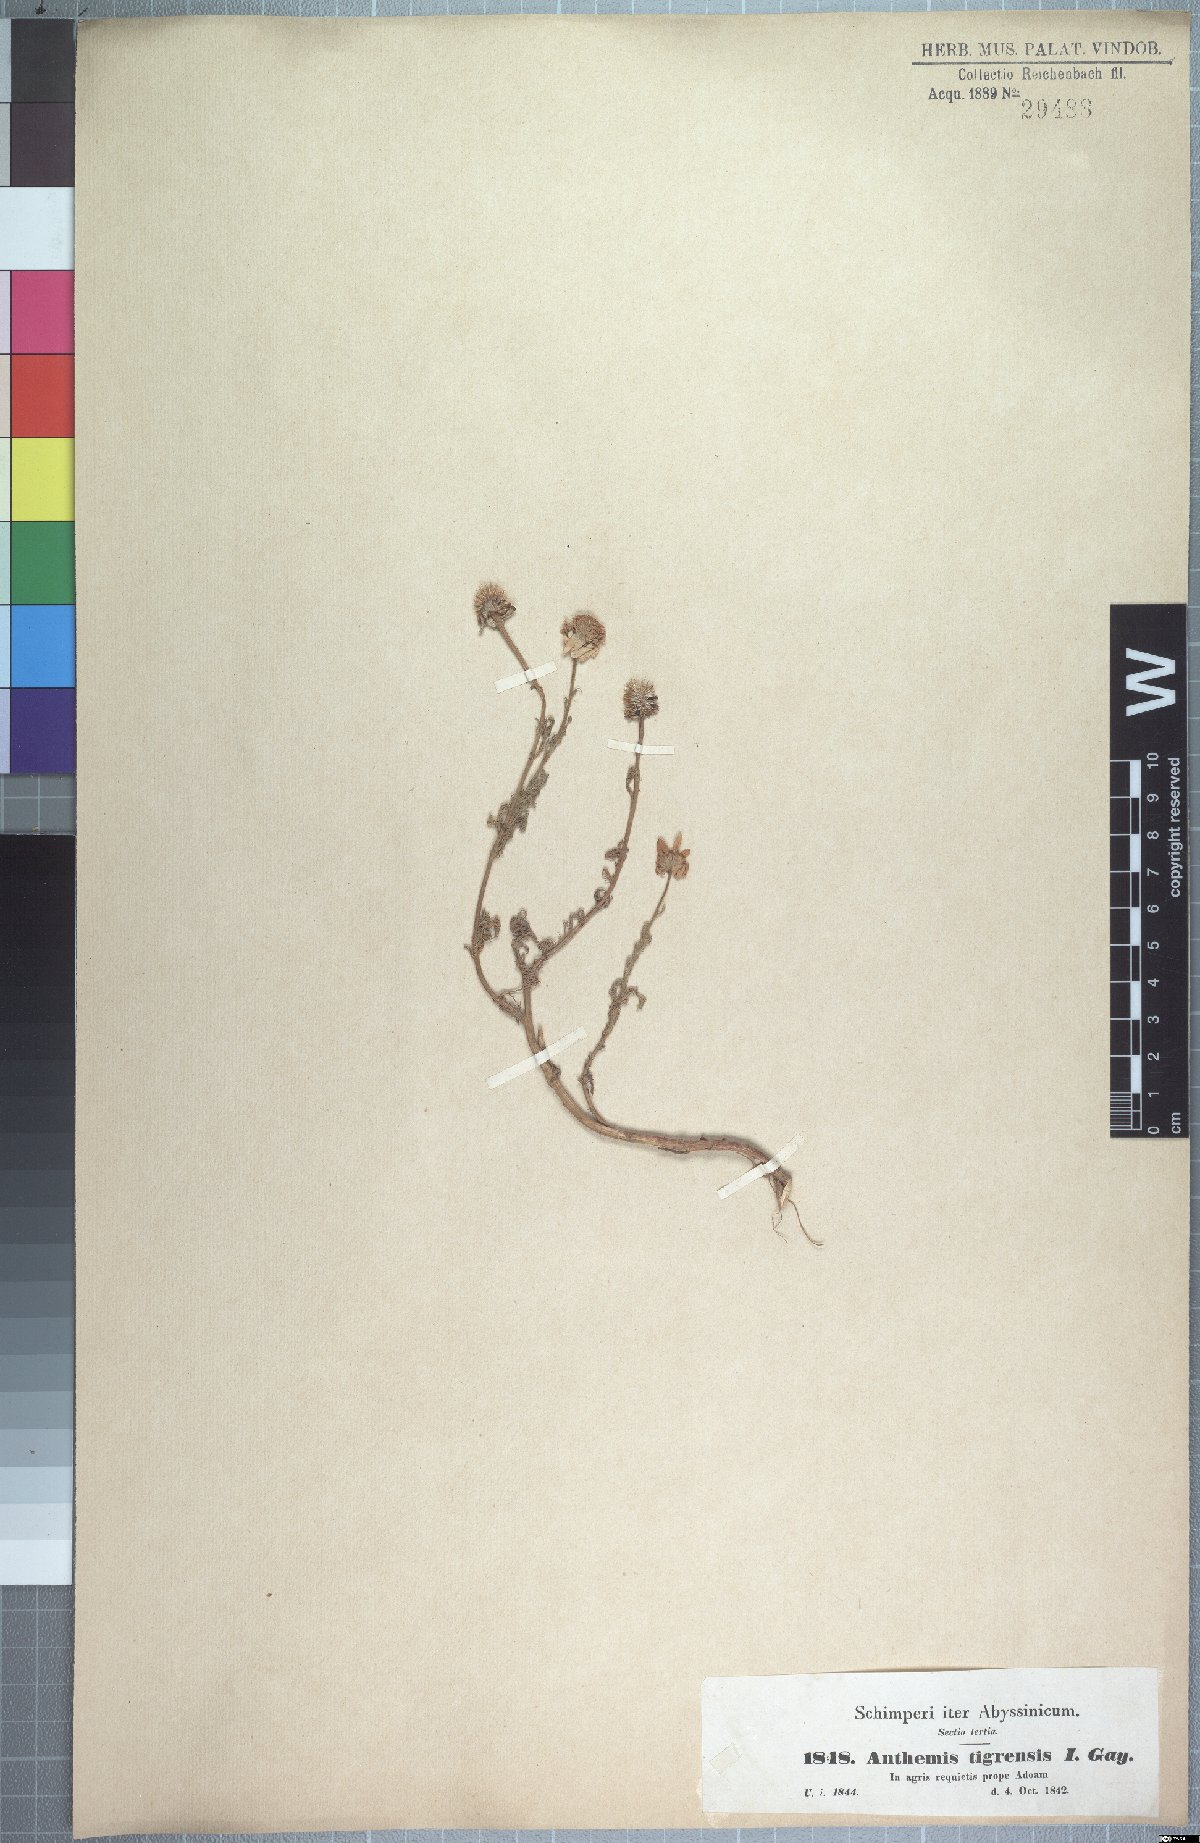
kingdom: Plantae
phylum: Tracheophyta
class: Magnoliopsida
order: Asterales
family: Asteraceae
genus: Anthemis
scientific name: Anthemis tigreensis
